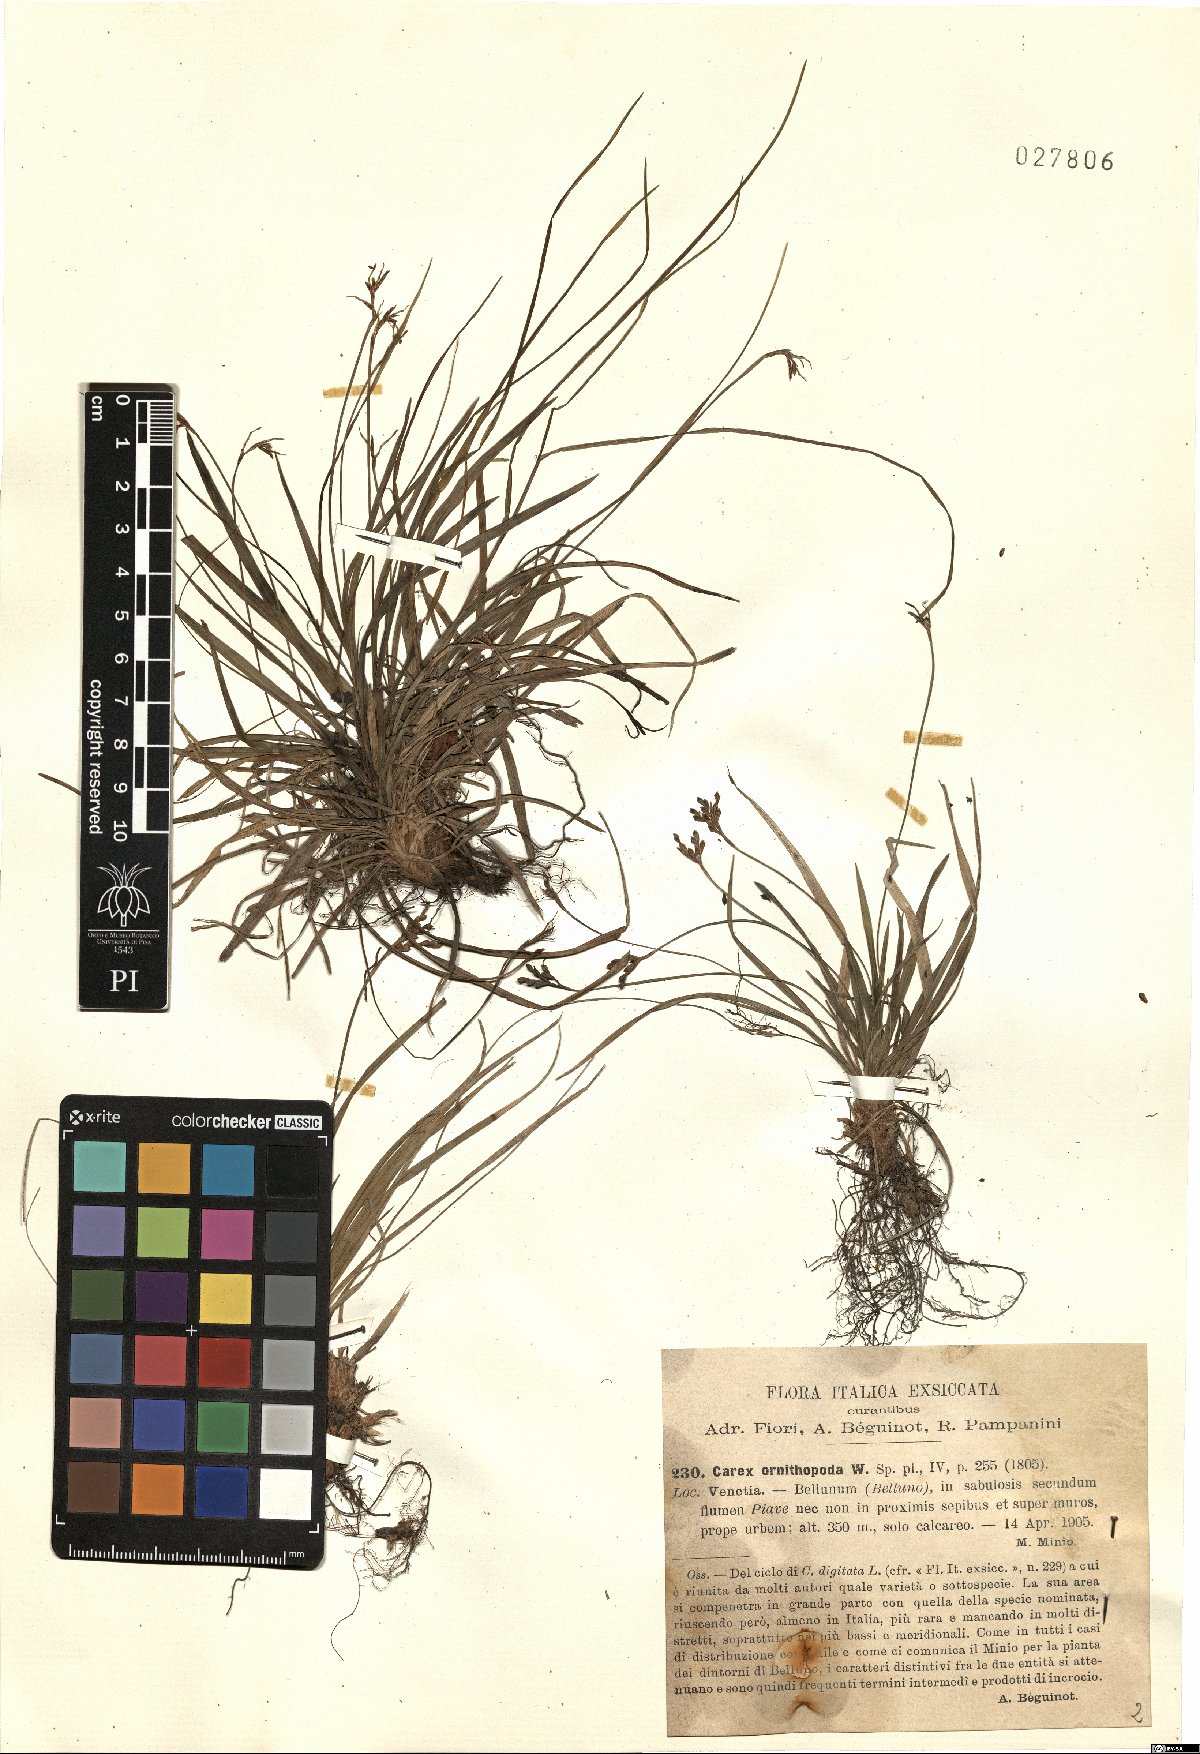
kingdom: Plantae
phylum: Tracheophyta
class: Liliopsida
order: Poales
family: Cyperaceae
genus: Carex
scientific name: Carex ornithopoda
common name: Bird's-foot sedge
